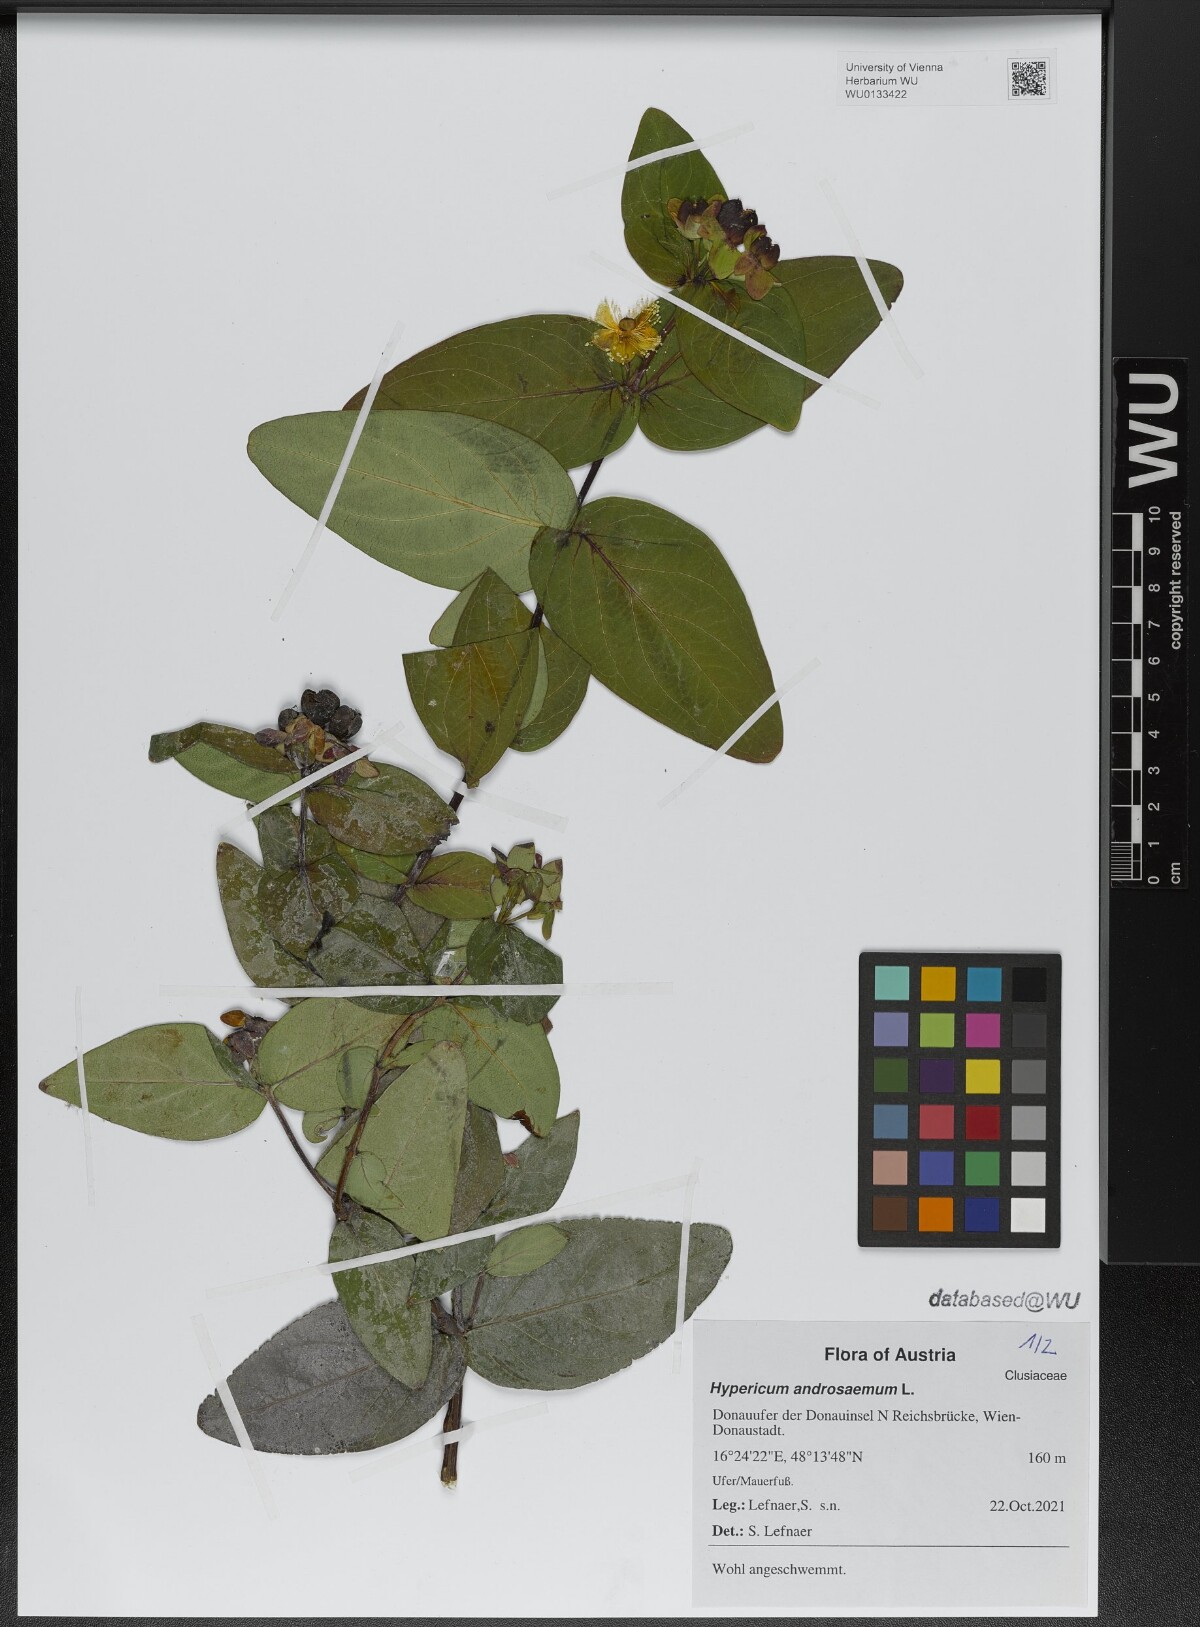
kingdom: Plantae
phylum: Tracheophyta
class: Magnoliopsida
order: Malpighiales
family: Hypericaceae
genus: Hypericum
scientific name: Hypericum androsaemum
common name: Sweet-amber
